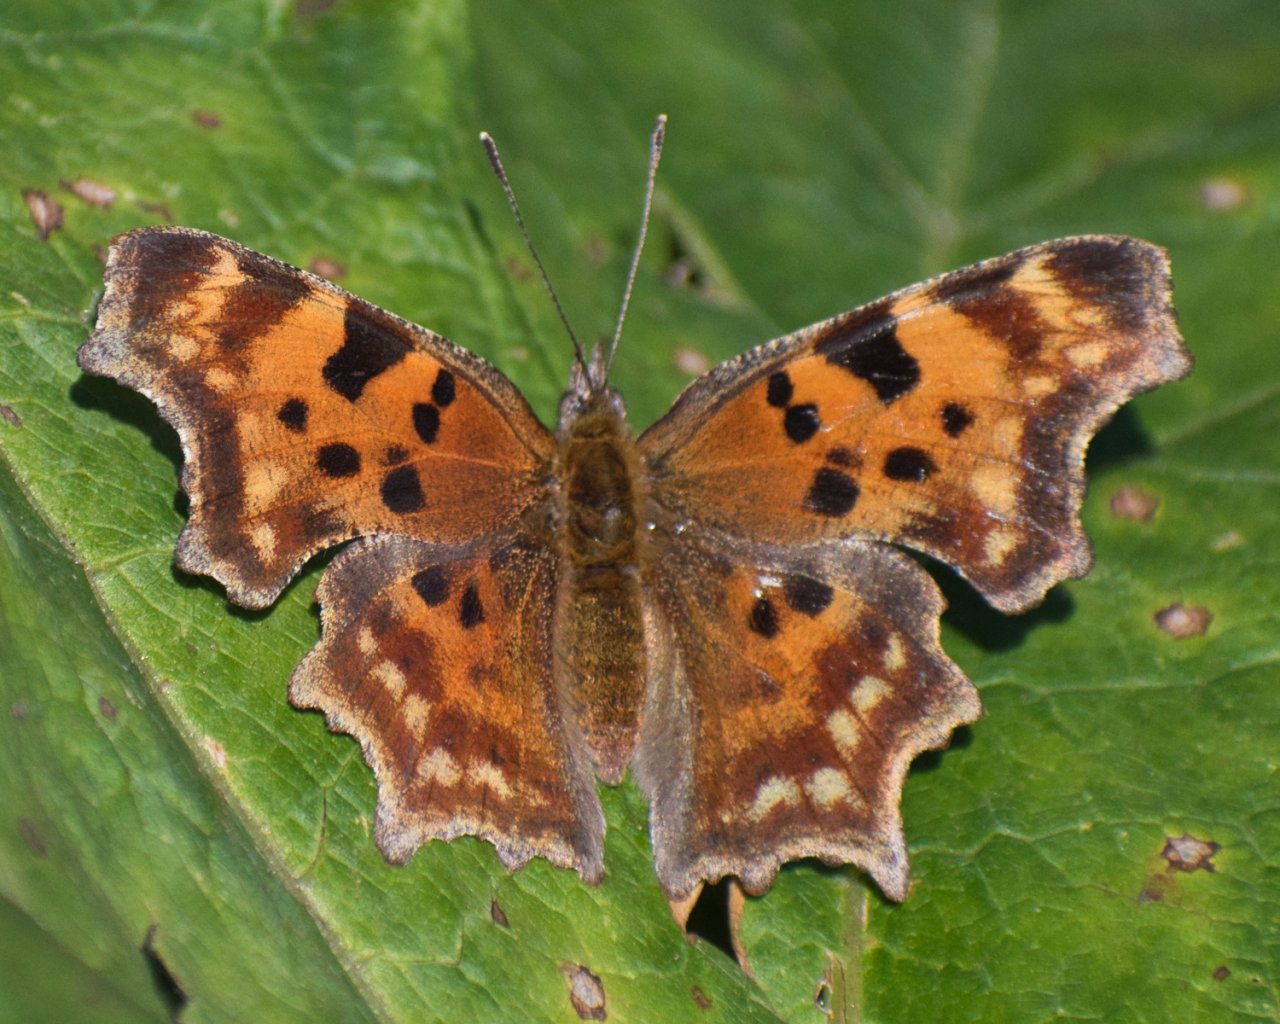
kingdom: Animalia
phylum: Arthropoda
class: Insecta
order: Lepidoptera
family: Nymphalidae
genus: Polygonia
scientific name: Polygonia gracilis
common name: Hoary Comma
